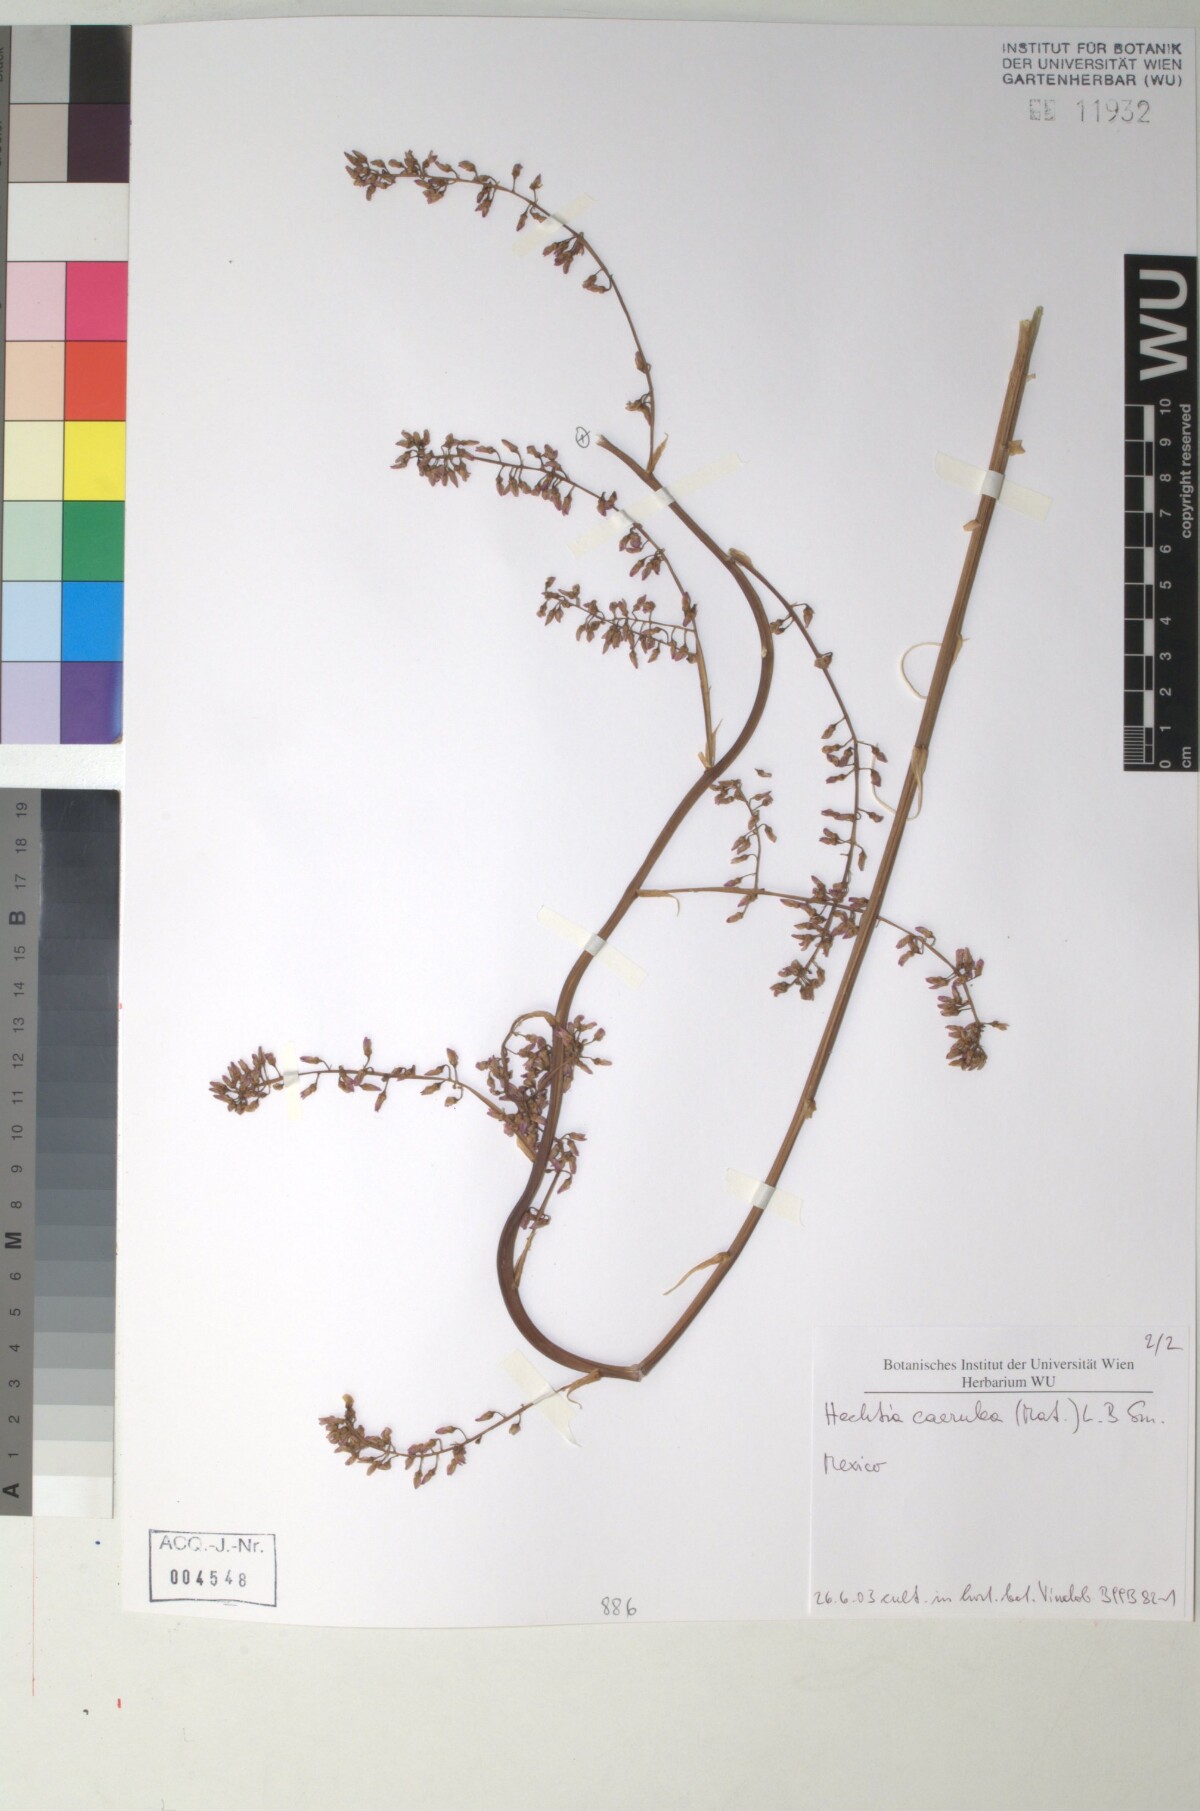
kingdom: Plantae
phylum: Tracheophyta
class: Liliopsida
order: Poales
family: Bromeliaceae
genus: Hechtia
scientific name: Hechtia
